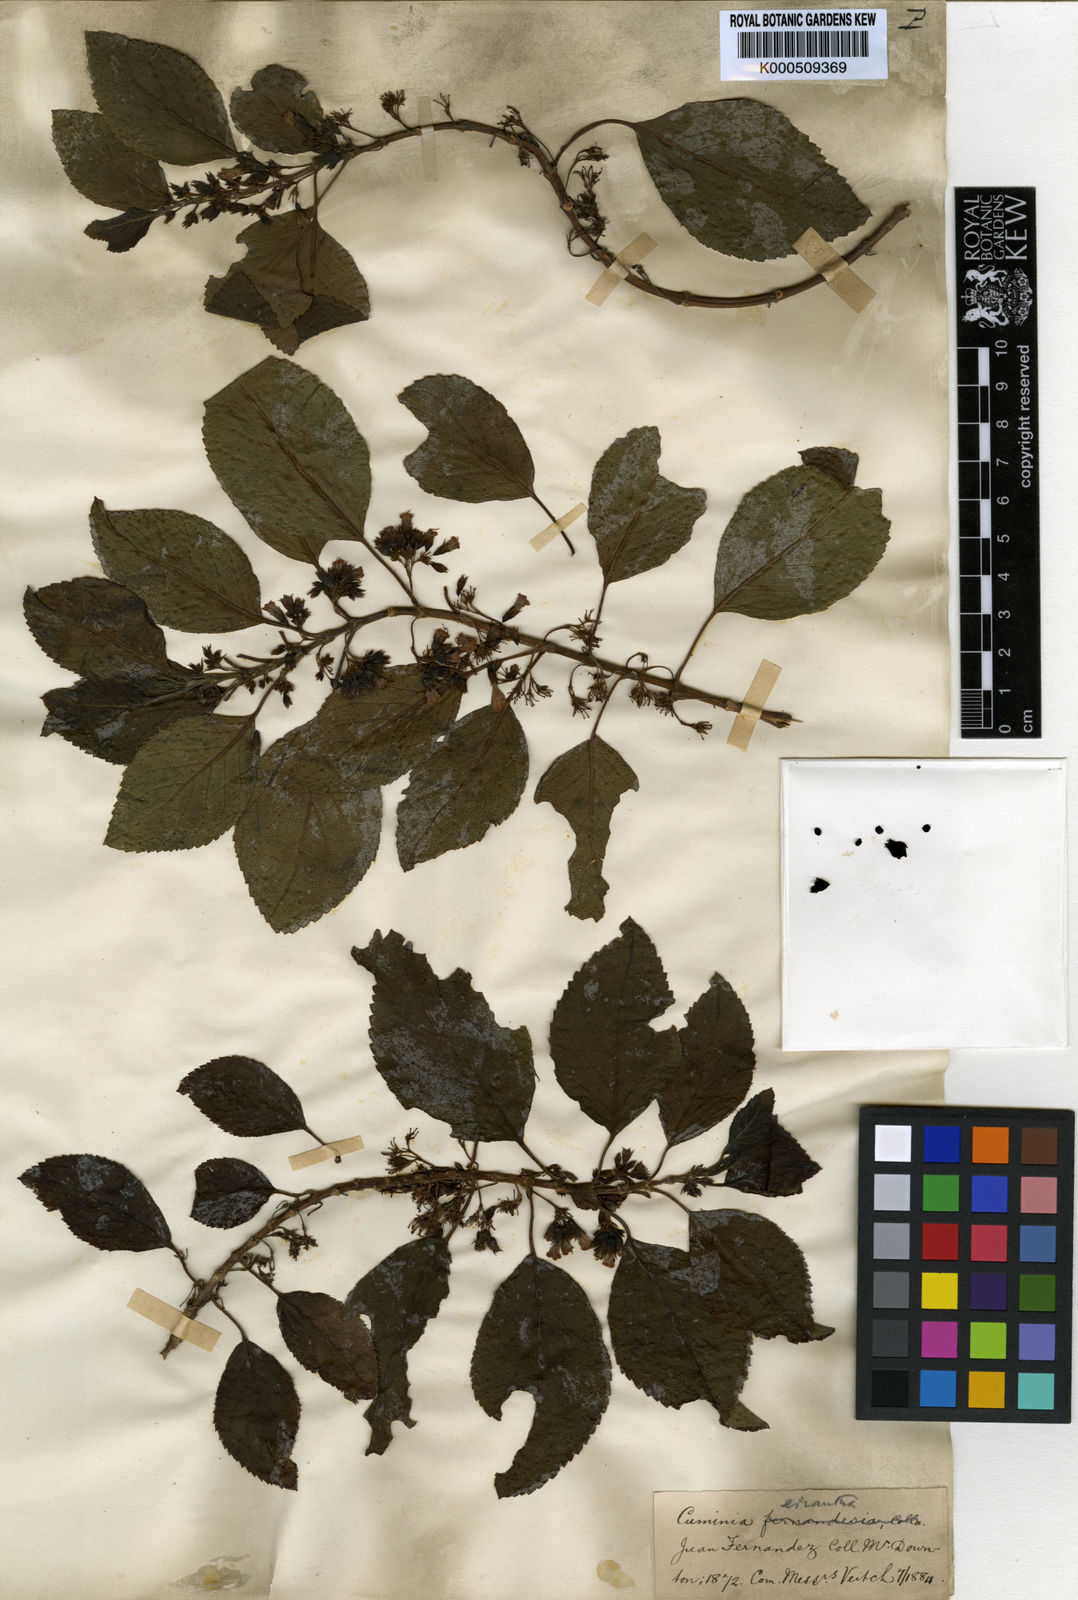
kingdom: Plantae
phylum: Tracheophyta
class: Magnoliopsida
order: Lamiales
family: Lamiaceae
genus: Cuminia
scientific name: Cuminia eriantha
